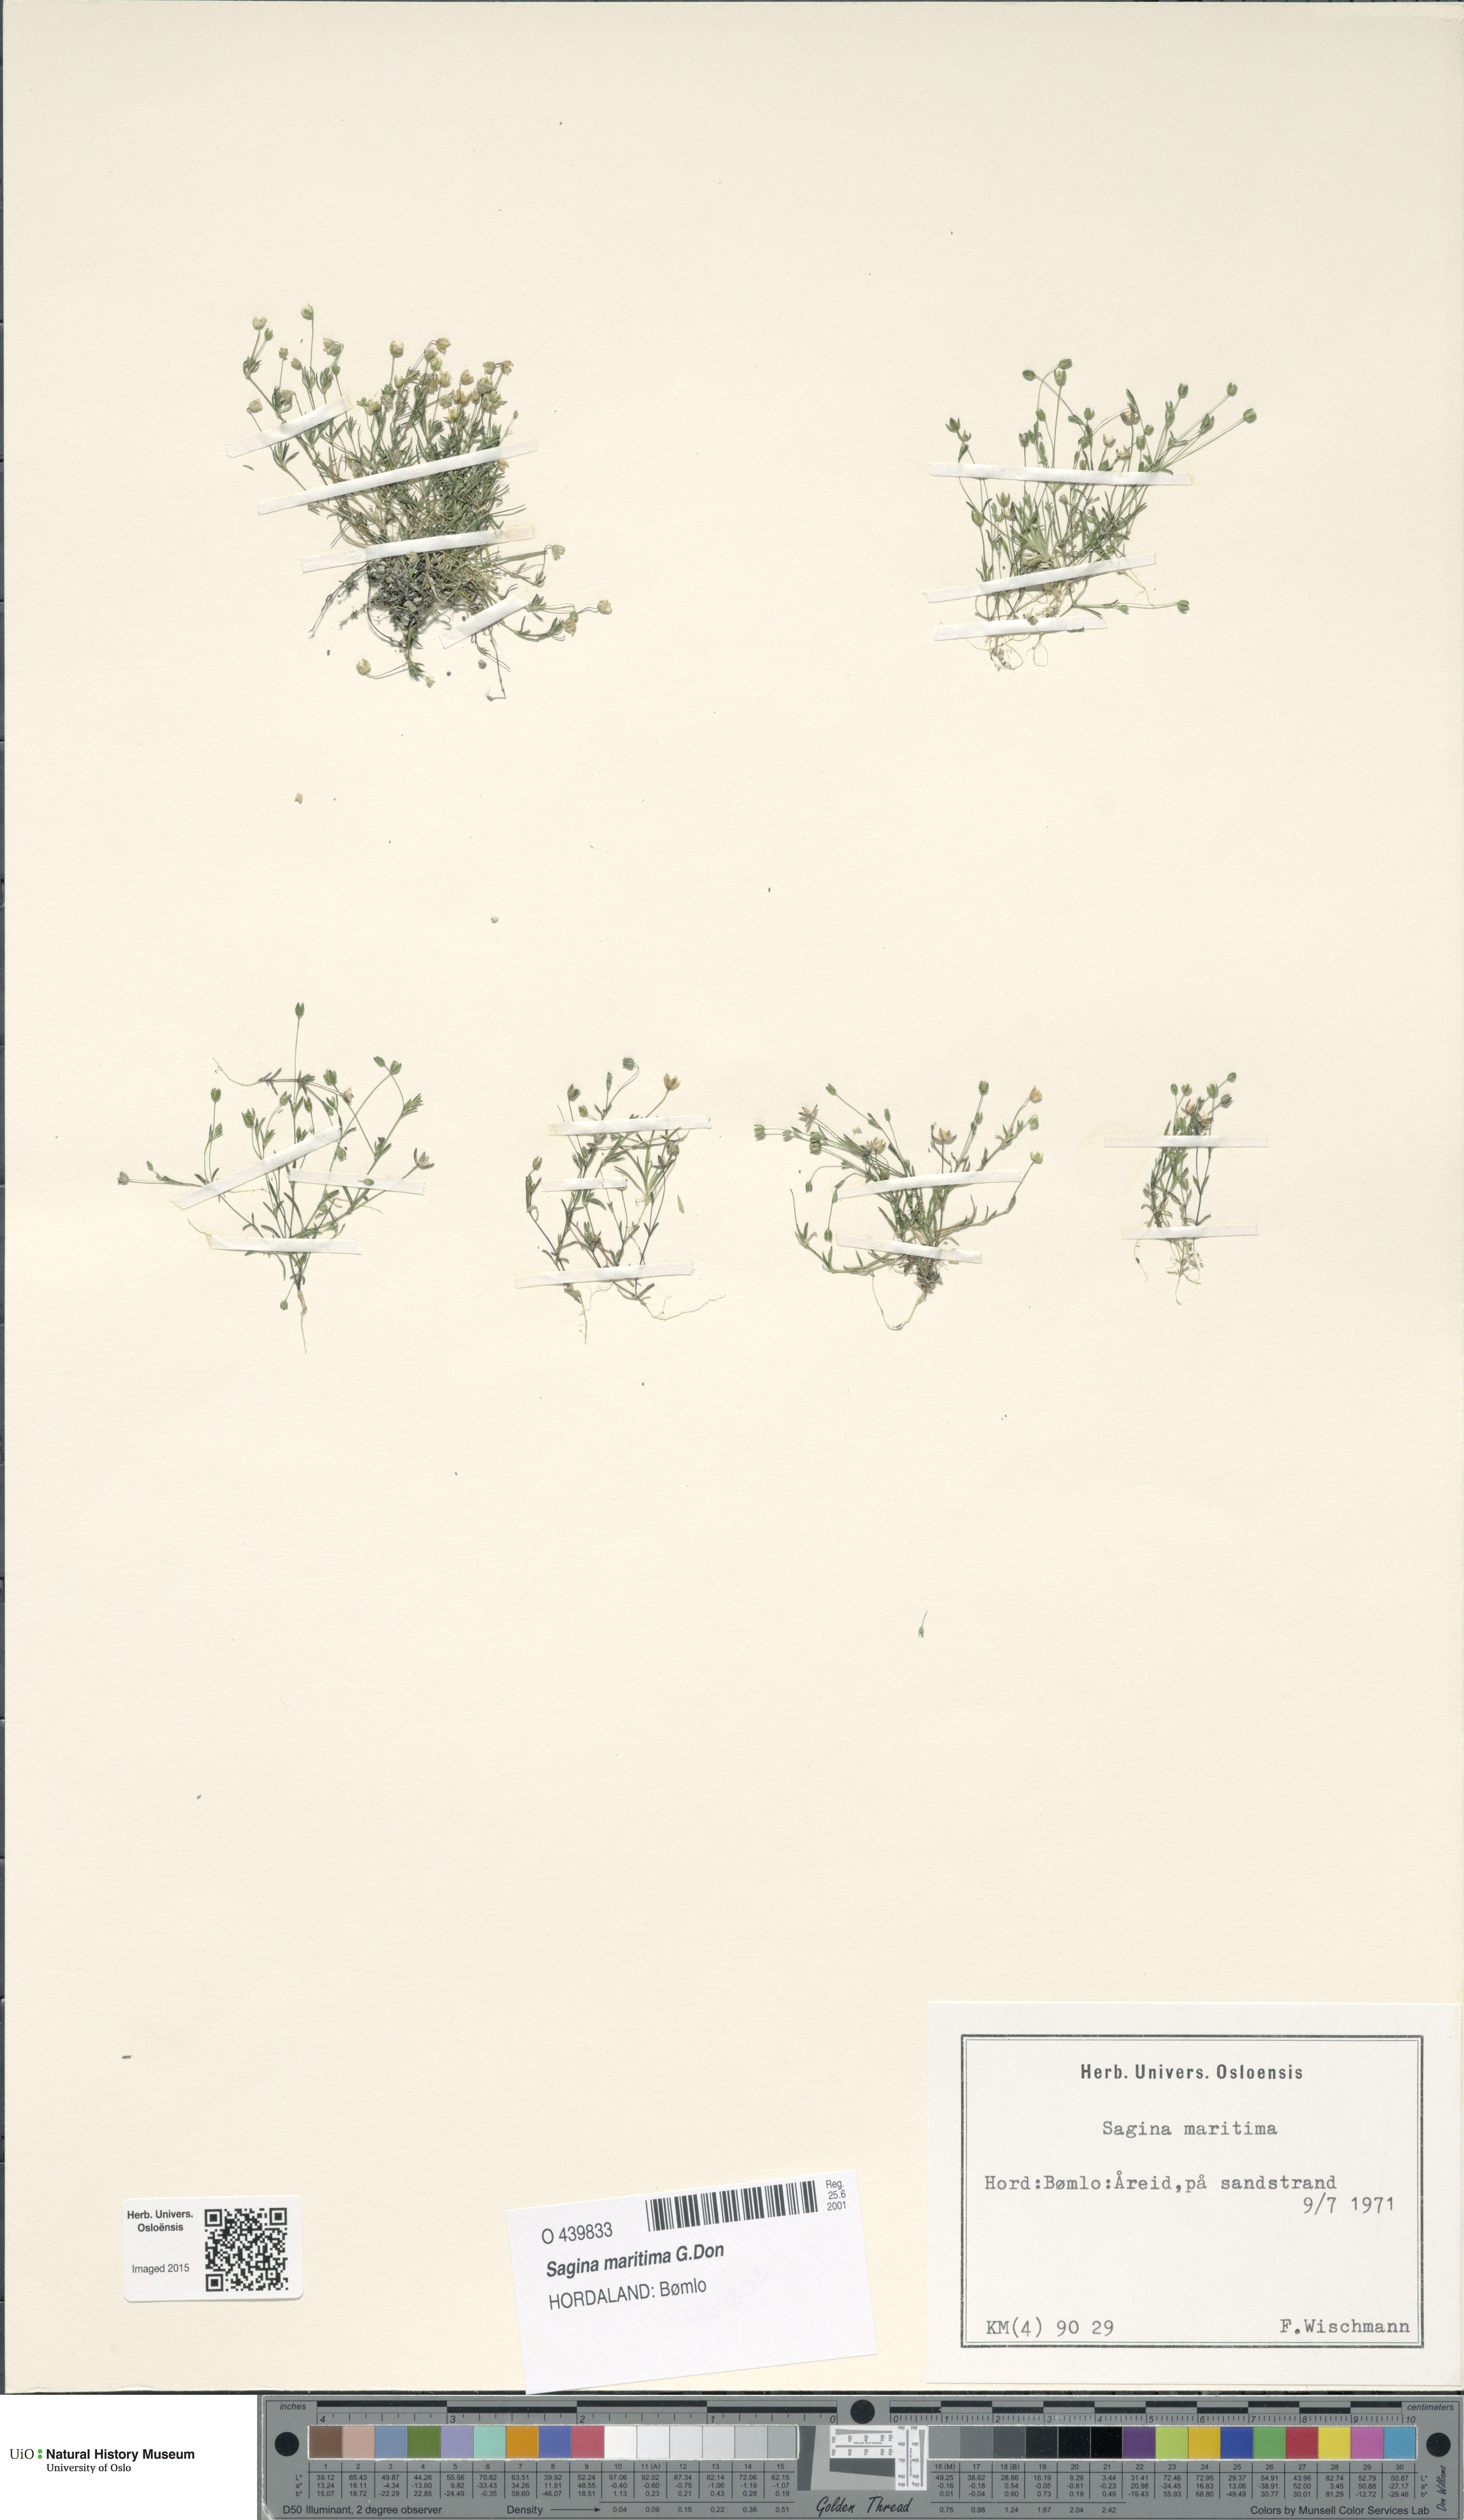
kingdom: Plantae
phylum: Tracheophyta
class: Magnoliopsida
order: Caryophyllales
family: Caryophyllaceae
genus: Sagina
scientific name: Sagina maritima
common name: Sea pearlwort
